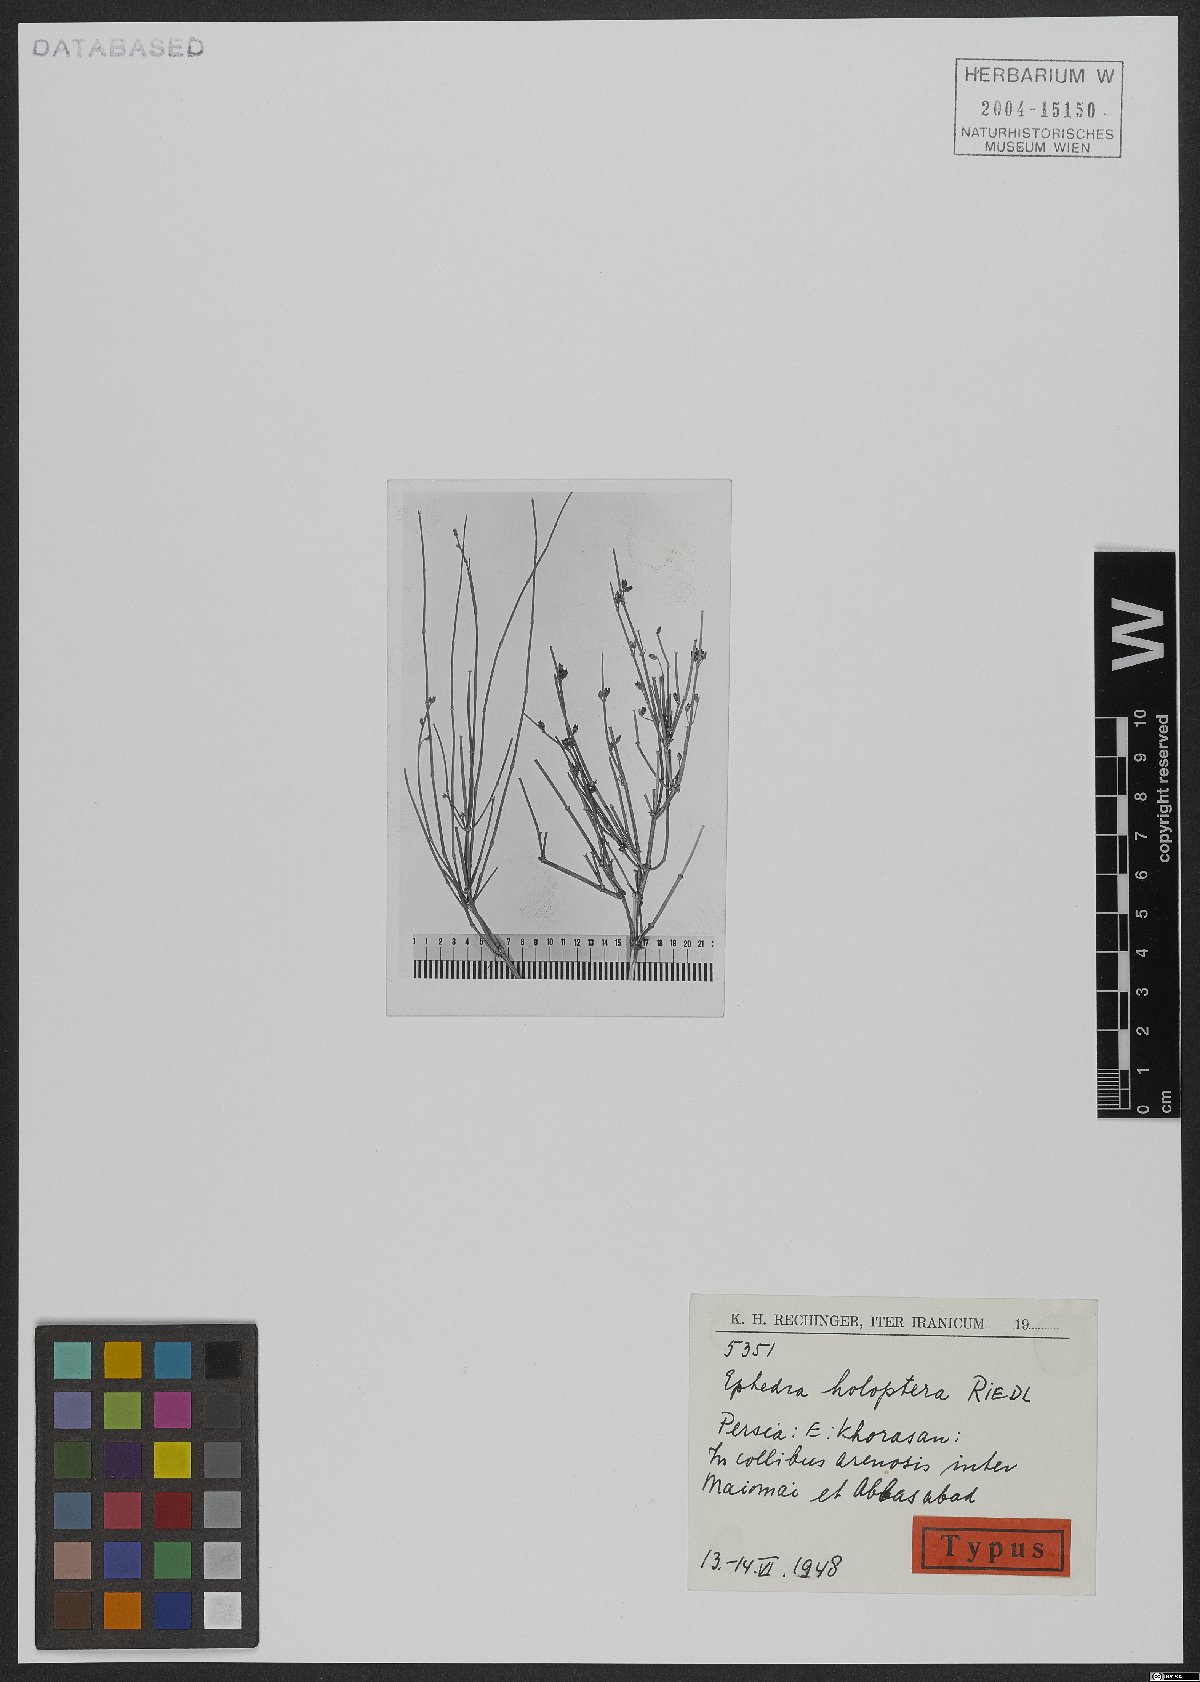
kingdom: Plantae
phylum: Tracheophyta
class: Gnetopsida
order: Ephedrales
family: Ephedraceae
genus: Ephedra
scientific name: Ephedra holoptera
